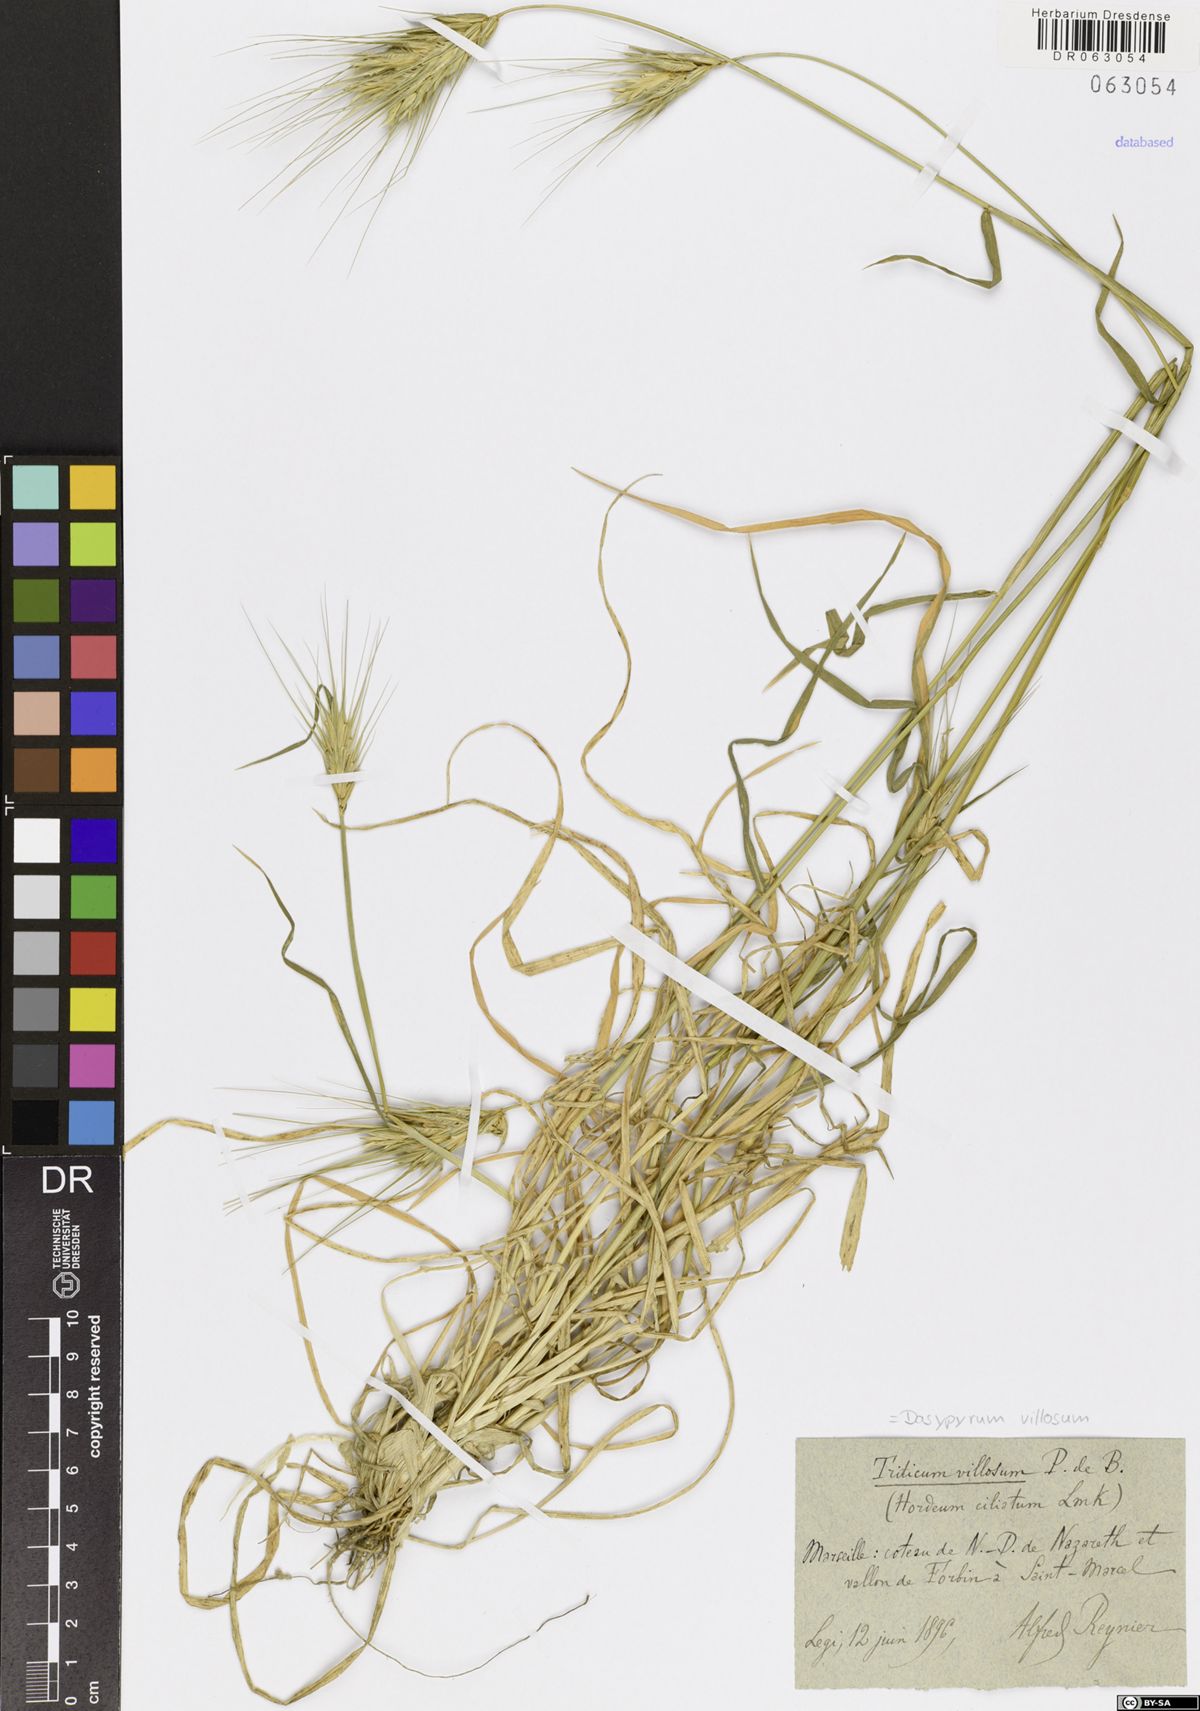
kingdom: Plantae
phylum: Tracheophyta
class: Liliopsida
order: Poales
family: Poaceae
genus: Dasypyrum
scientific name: Dasypyrum villosum
